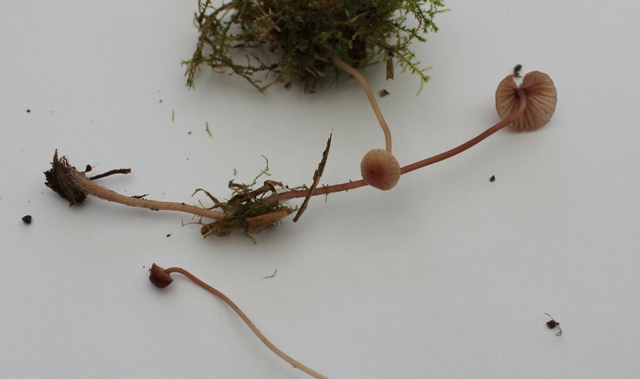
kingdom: Fungi
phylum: Basidiomycota
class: Agaricomycetes
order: Agaricales
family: Mycenaceae
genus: Mycena
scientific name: Mycena sanguinolenta
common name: rødmælket huesvamp
